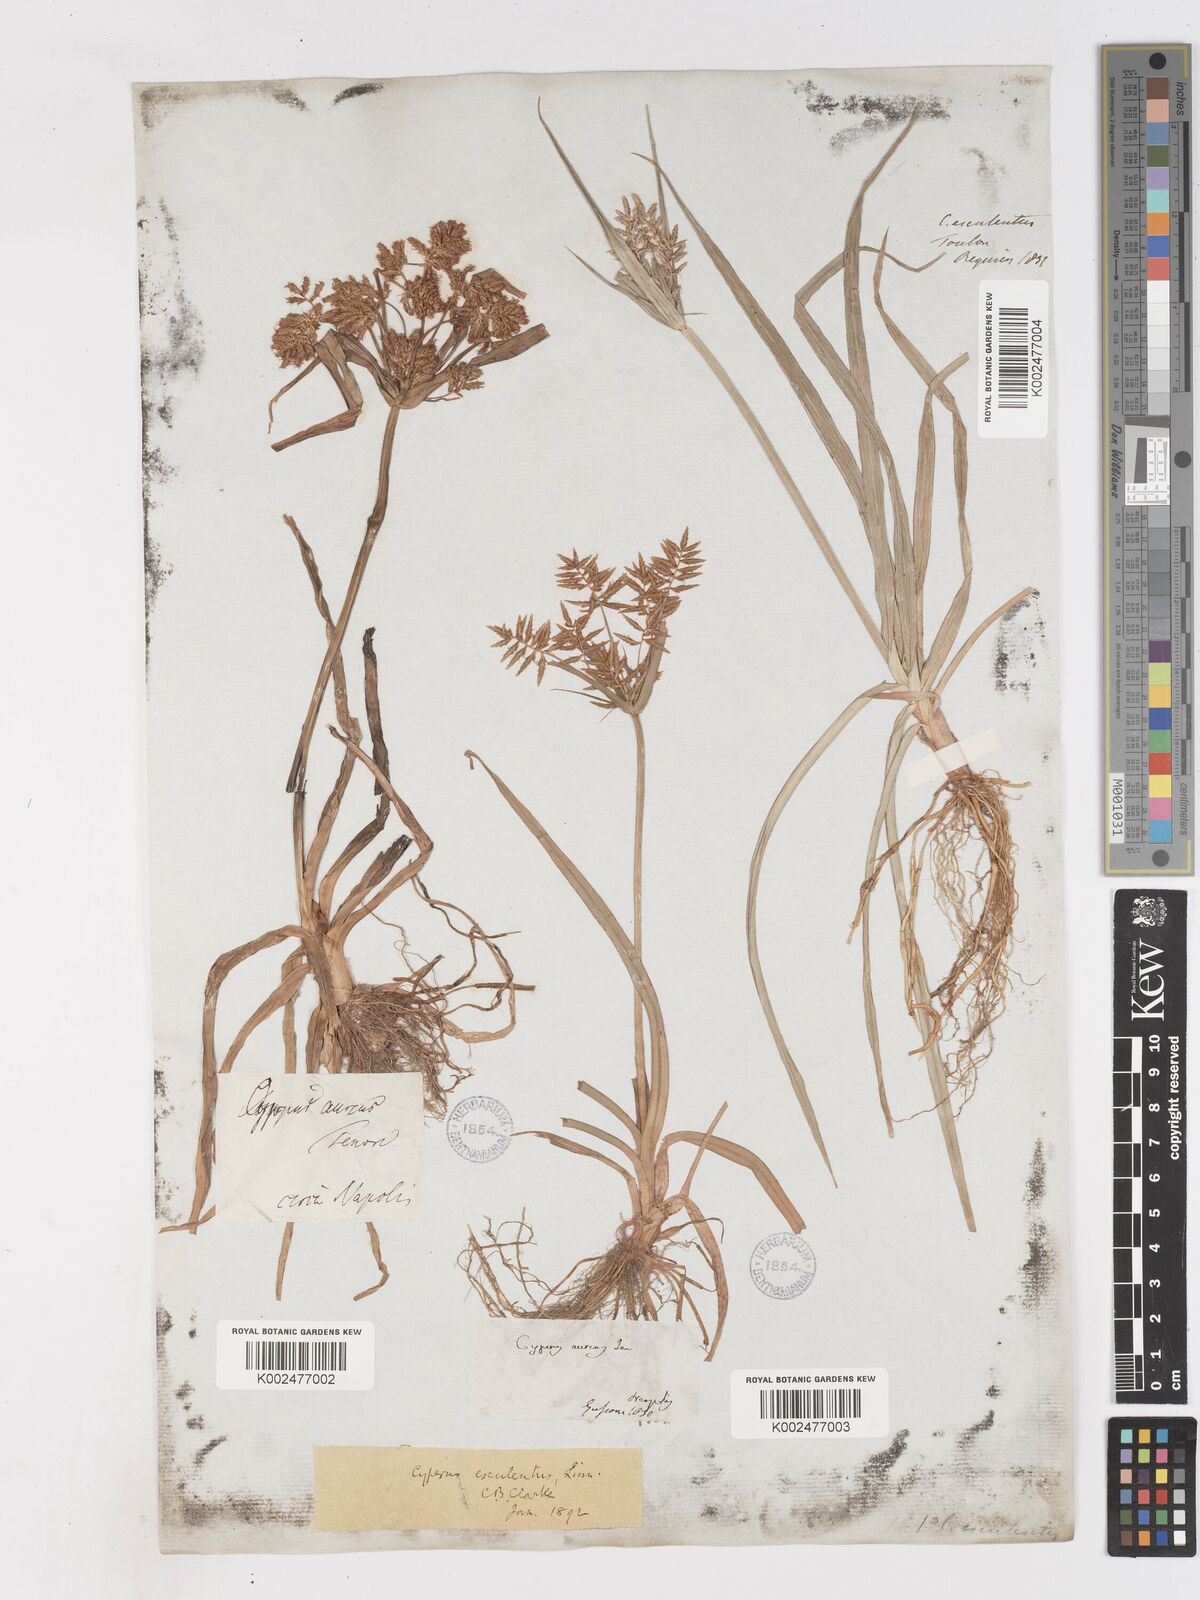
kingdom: Plantae
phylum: Tracheophyta
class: Liliopsida
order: Poales
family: Cyperaceae
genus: Cyperus
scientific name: Cyperus esculentus
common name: Yellow nutsedge
